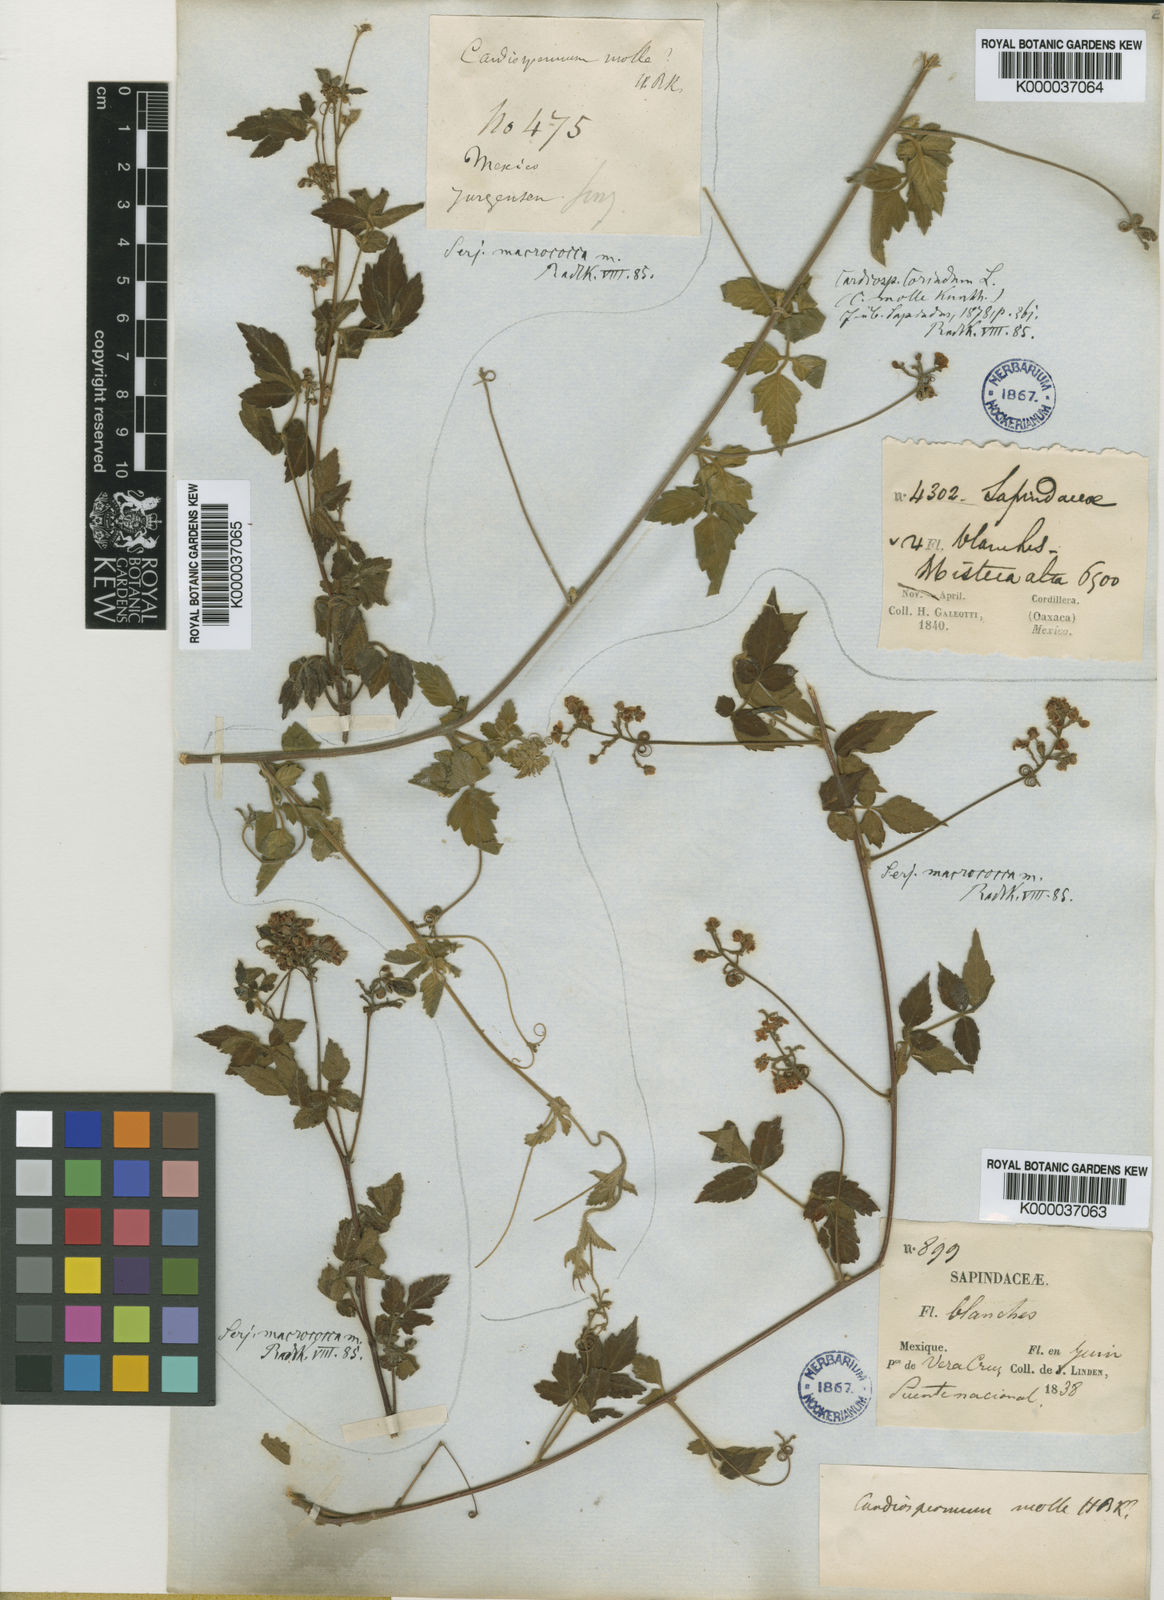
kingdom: Plantae
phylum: Tracheophyta
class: Magnoliopsida
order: Sapindales
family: Sapindaceae
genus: Serjania
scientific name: Serjania macrococca
